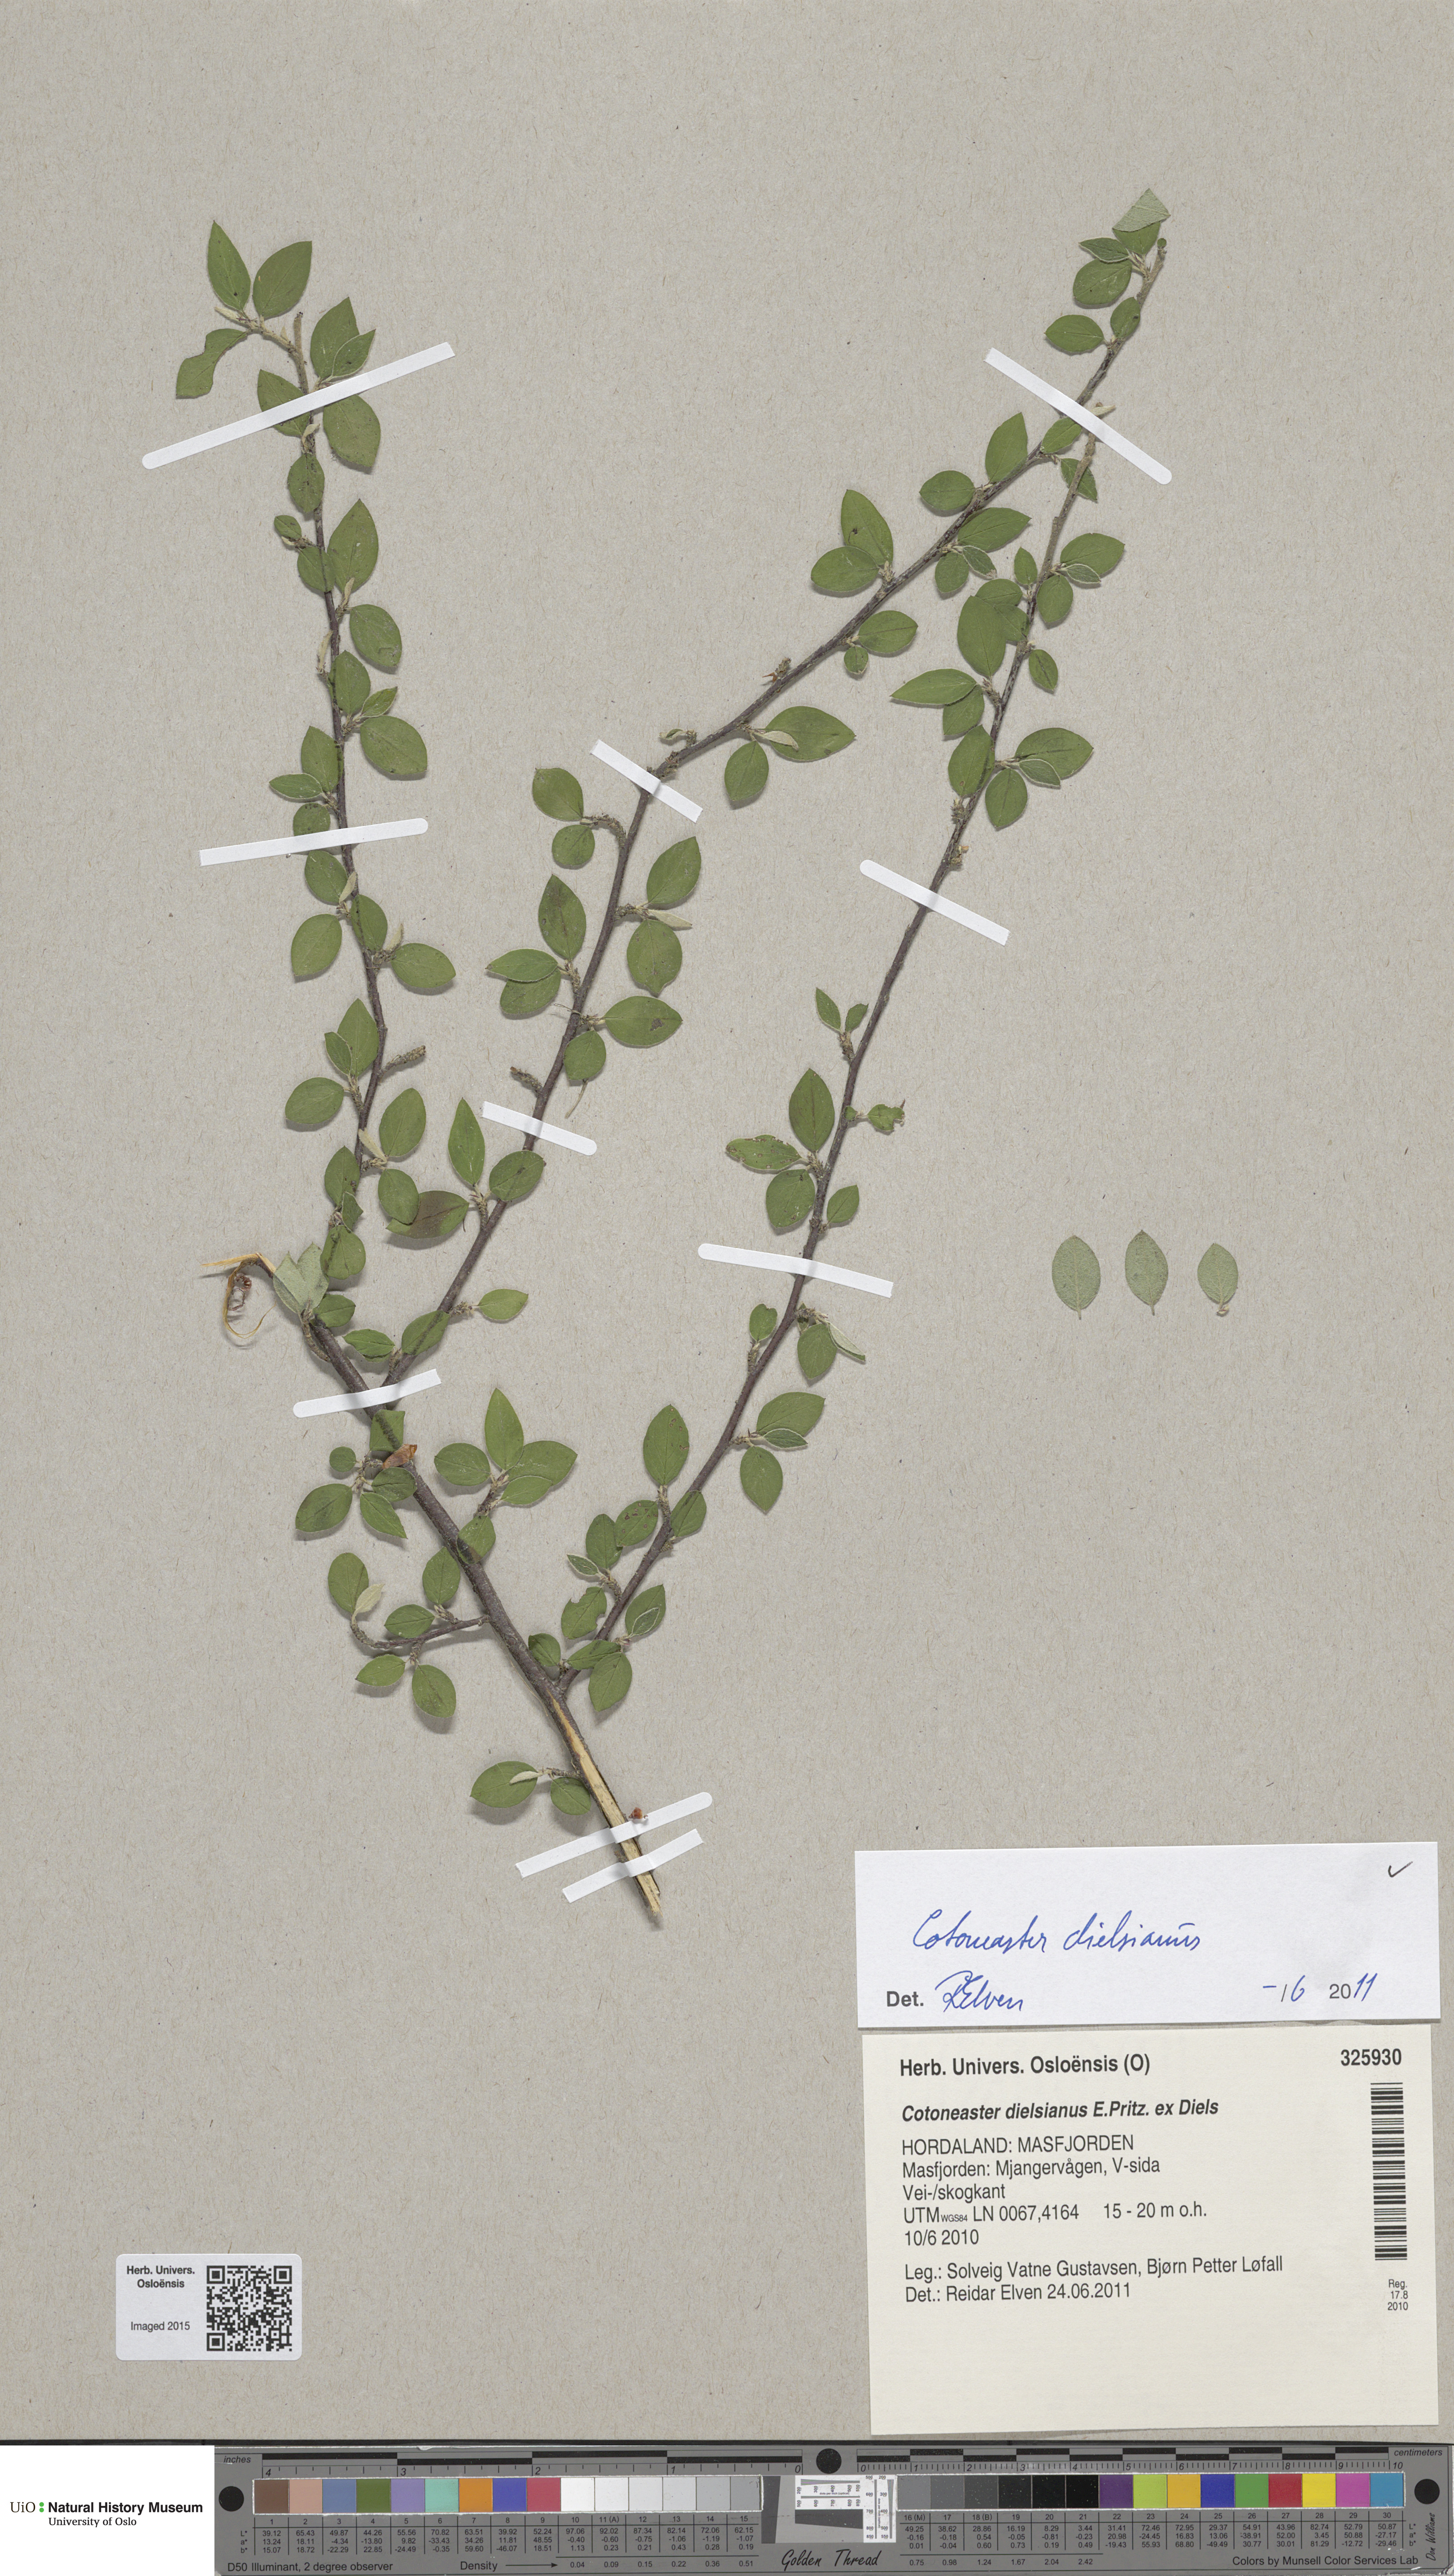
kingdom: Plantae
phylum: Tracheophyta
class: Magnoliopsida
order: Rosales
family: Rosaceae
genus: Cotoneaster
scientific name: Cotoneaster dielsianus
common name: Diels's cotoneaster
